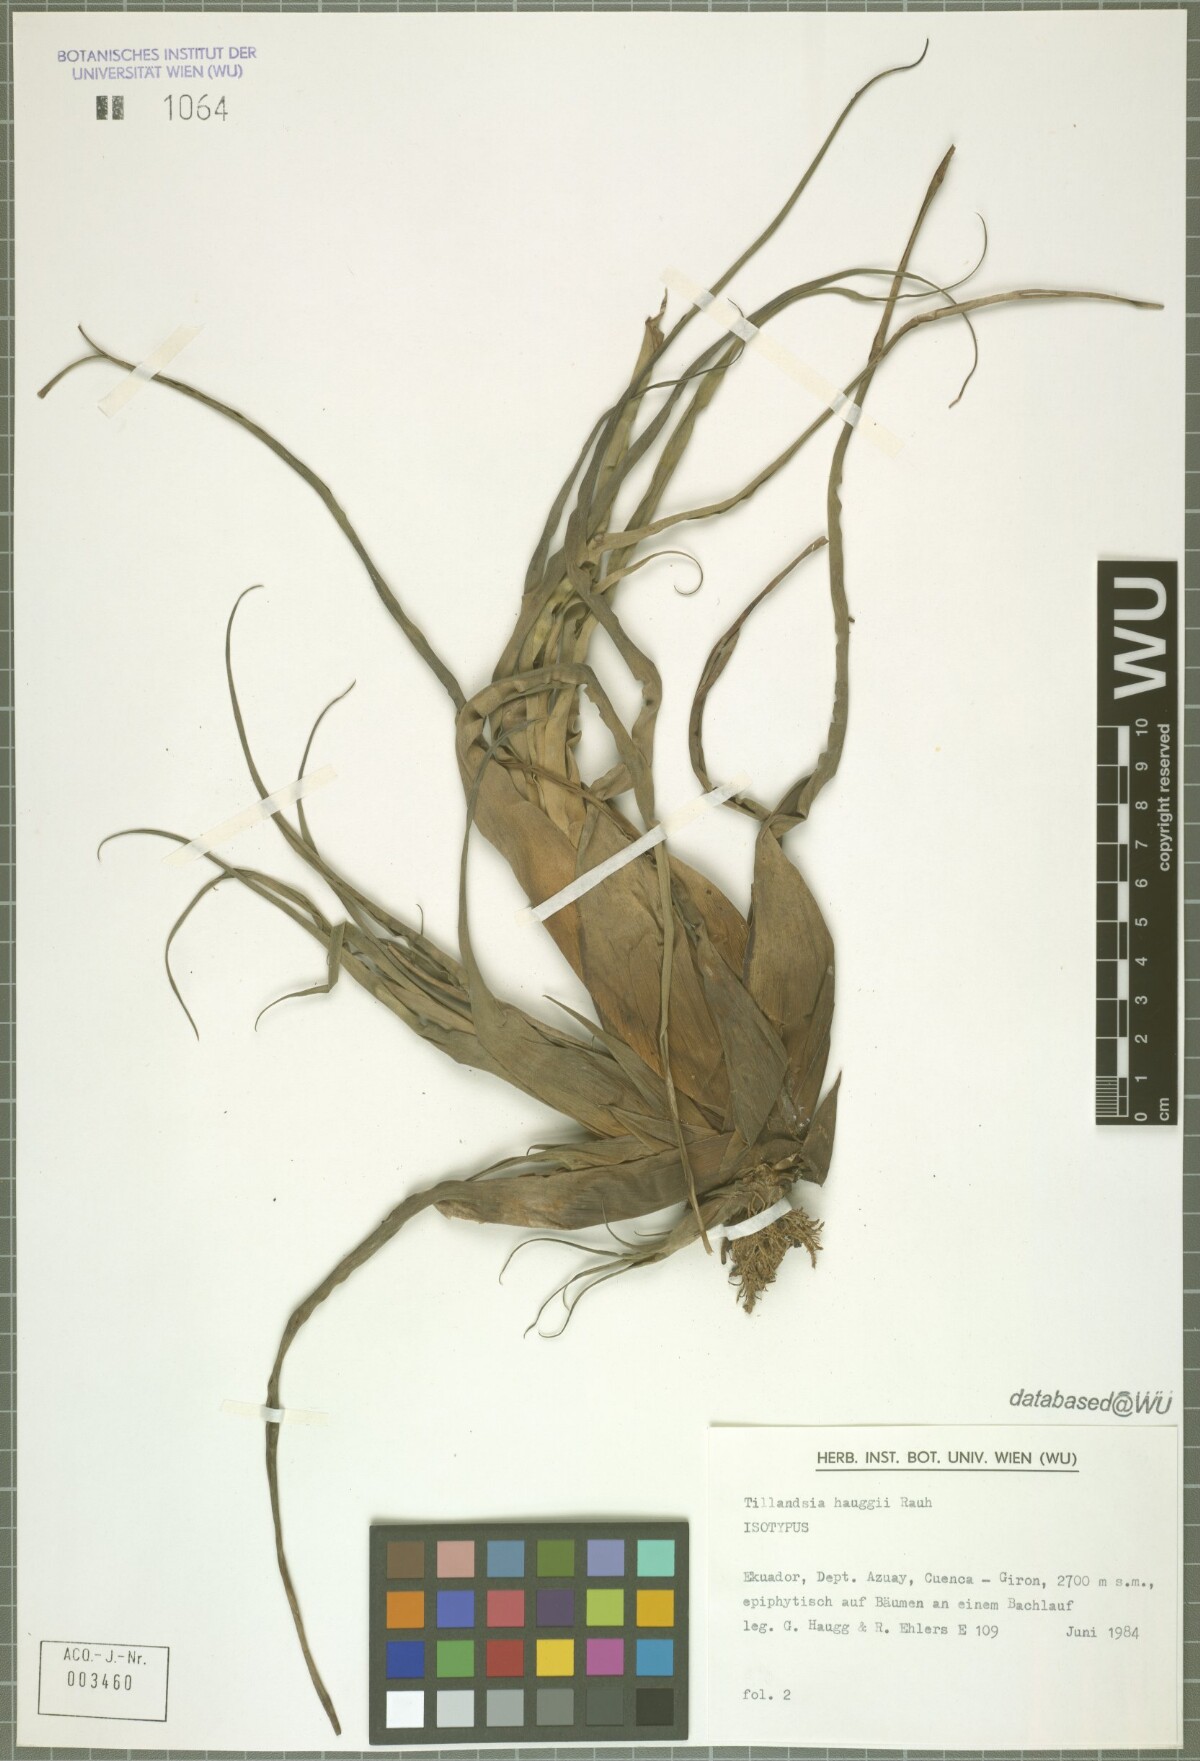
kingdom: Plantae
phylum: Tracheophyta
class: Liliopsida
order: Poales
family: Bromeliaceae
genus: Racinaea
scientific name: Racinaea hauggiae
